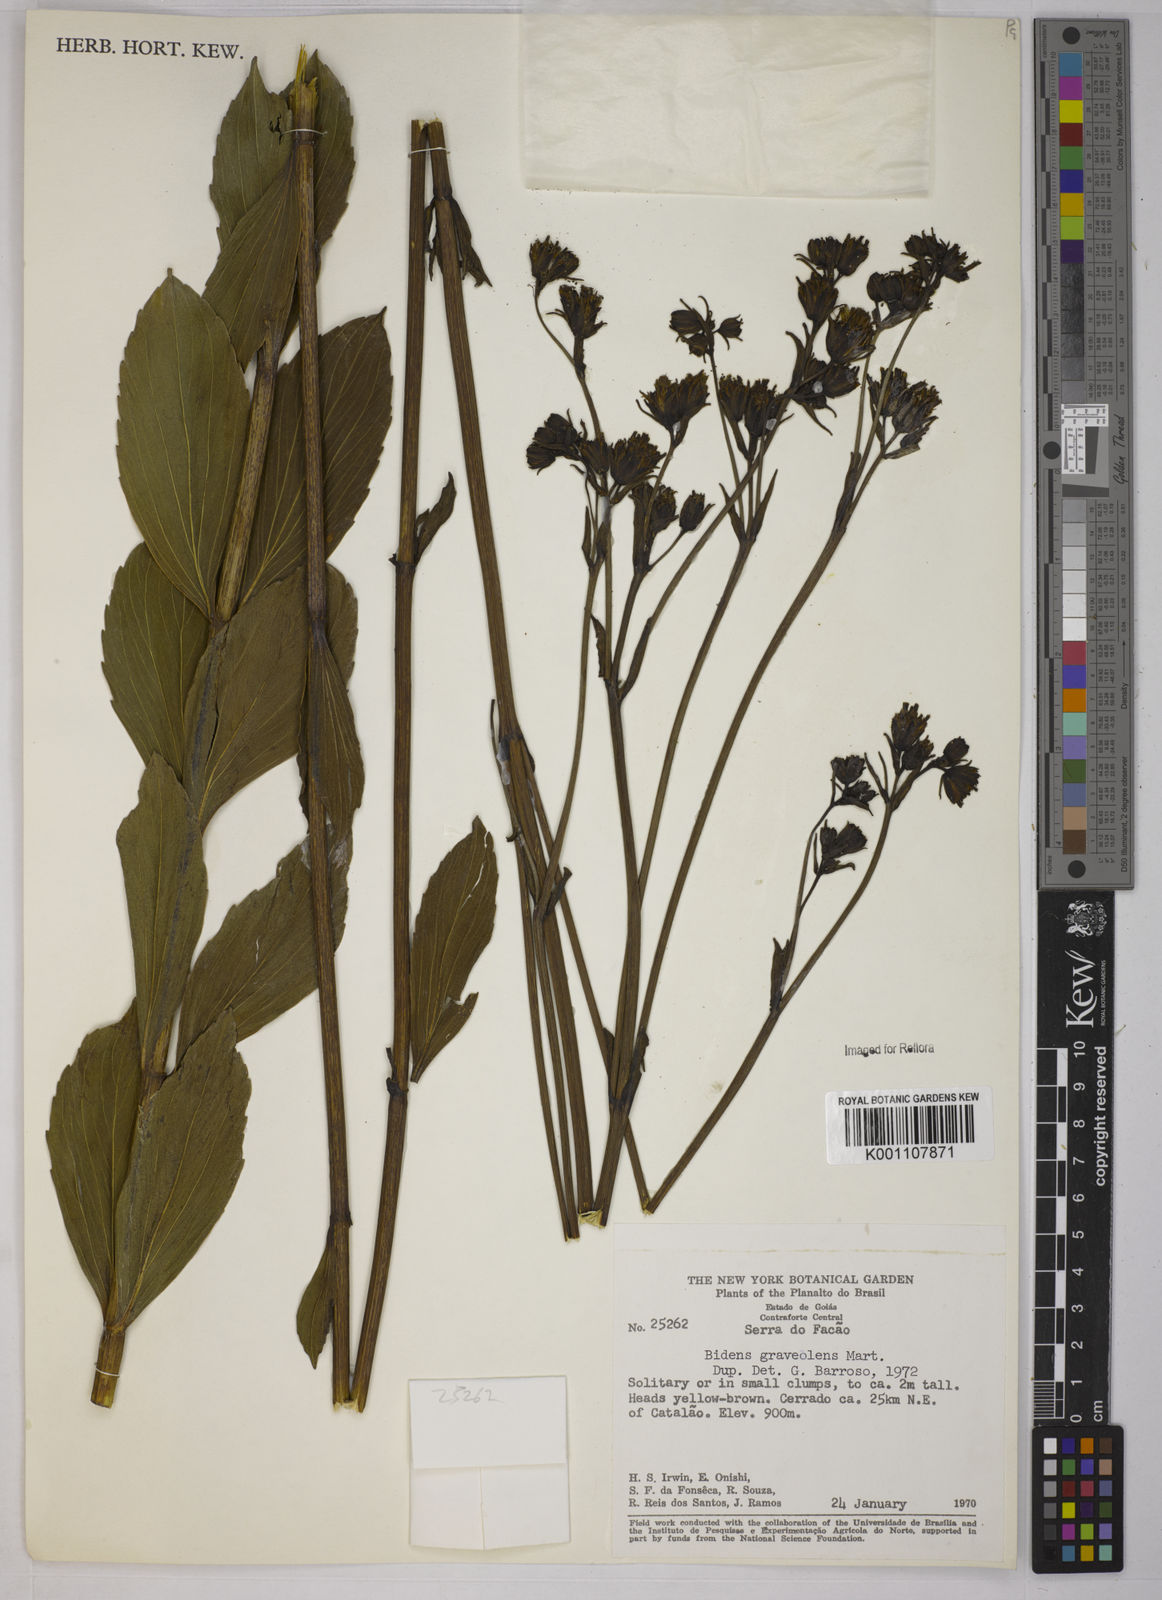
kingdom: Plantae
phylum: Tracheophyta
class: Magnoliopsida
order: Asterales
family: Asteraceae
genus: Bidens
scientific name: Bidens
